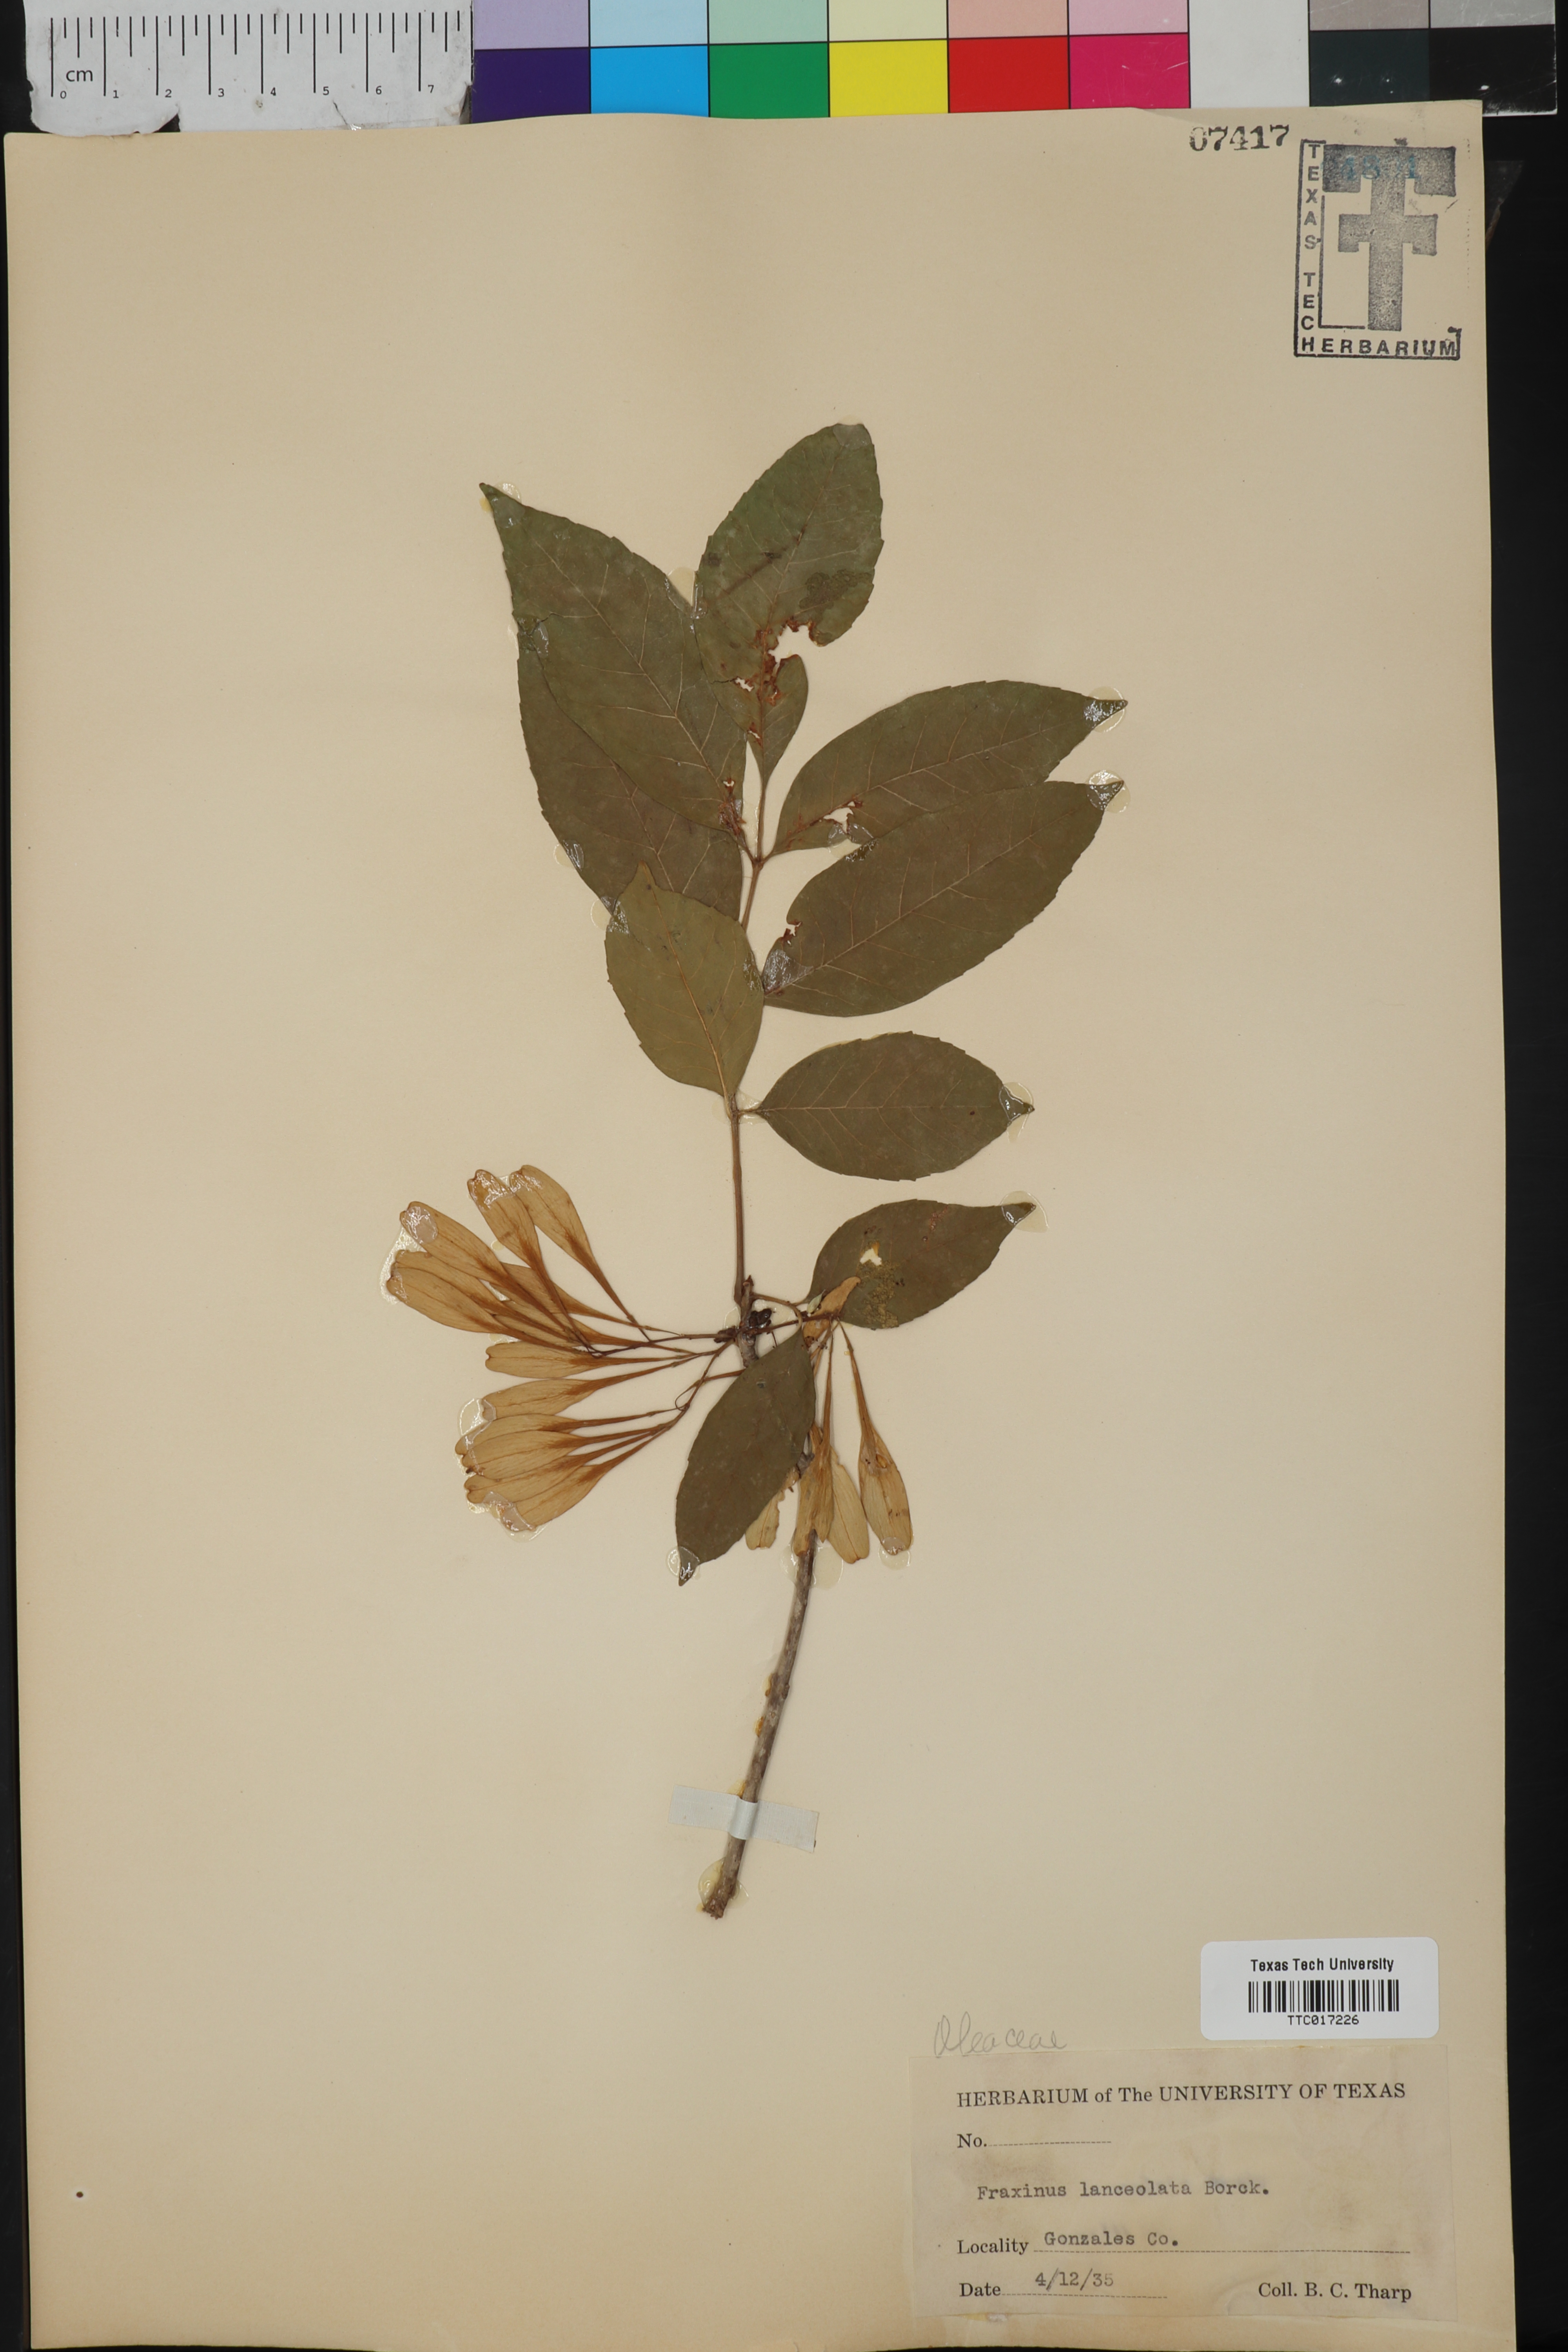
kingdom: Plantae
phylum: Tracheophyta
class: Magnoliopsida
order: Lamiales
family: Oleaceae
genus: Fraxinus
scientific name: Fraxinus pennsylvanica
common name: Green ash
